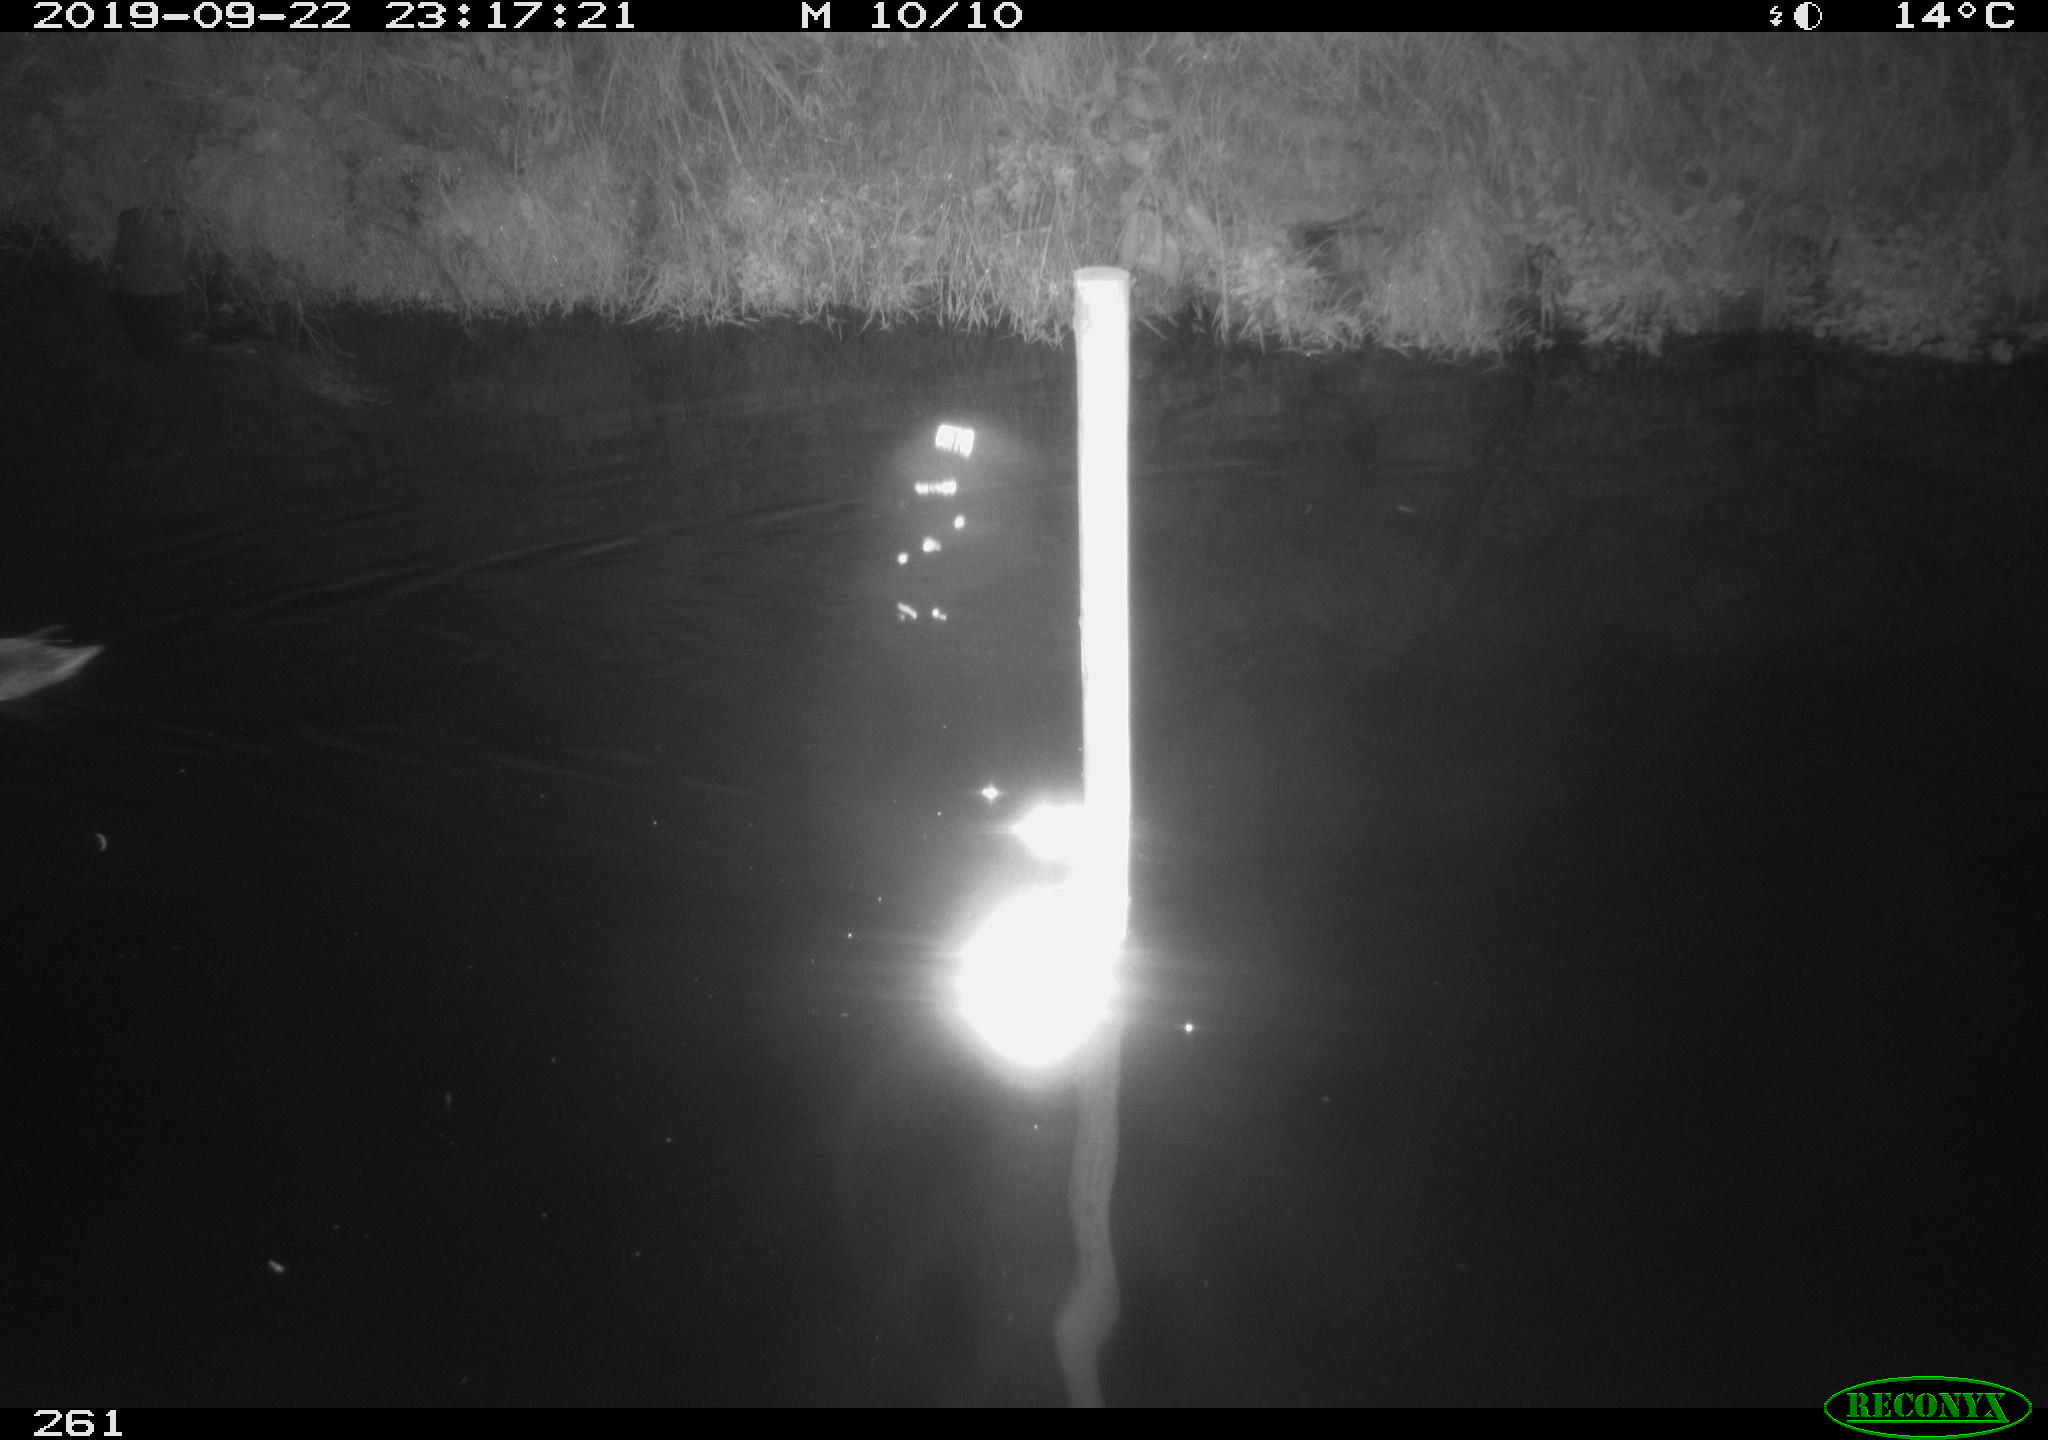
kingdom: Animalia
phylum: Chordata
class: Aves
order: Anseriformes
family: Anatidae
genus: Anas
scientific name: Anas platyrhynchos
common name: Mallard
